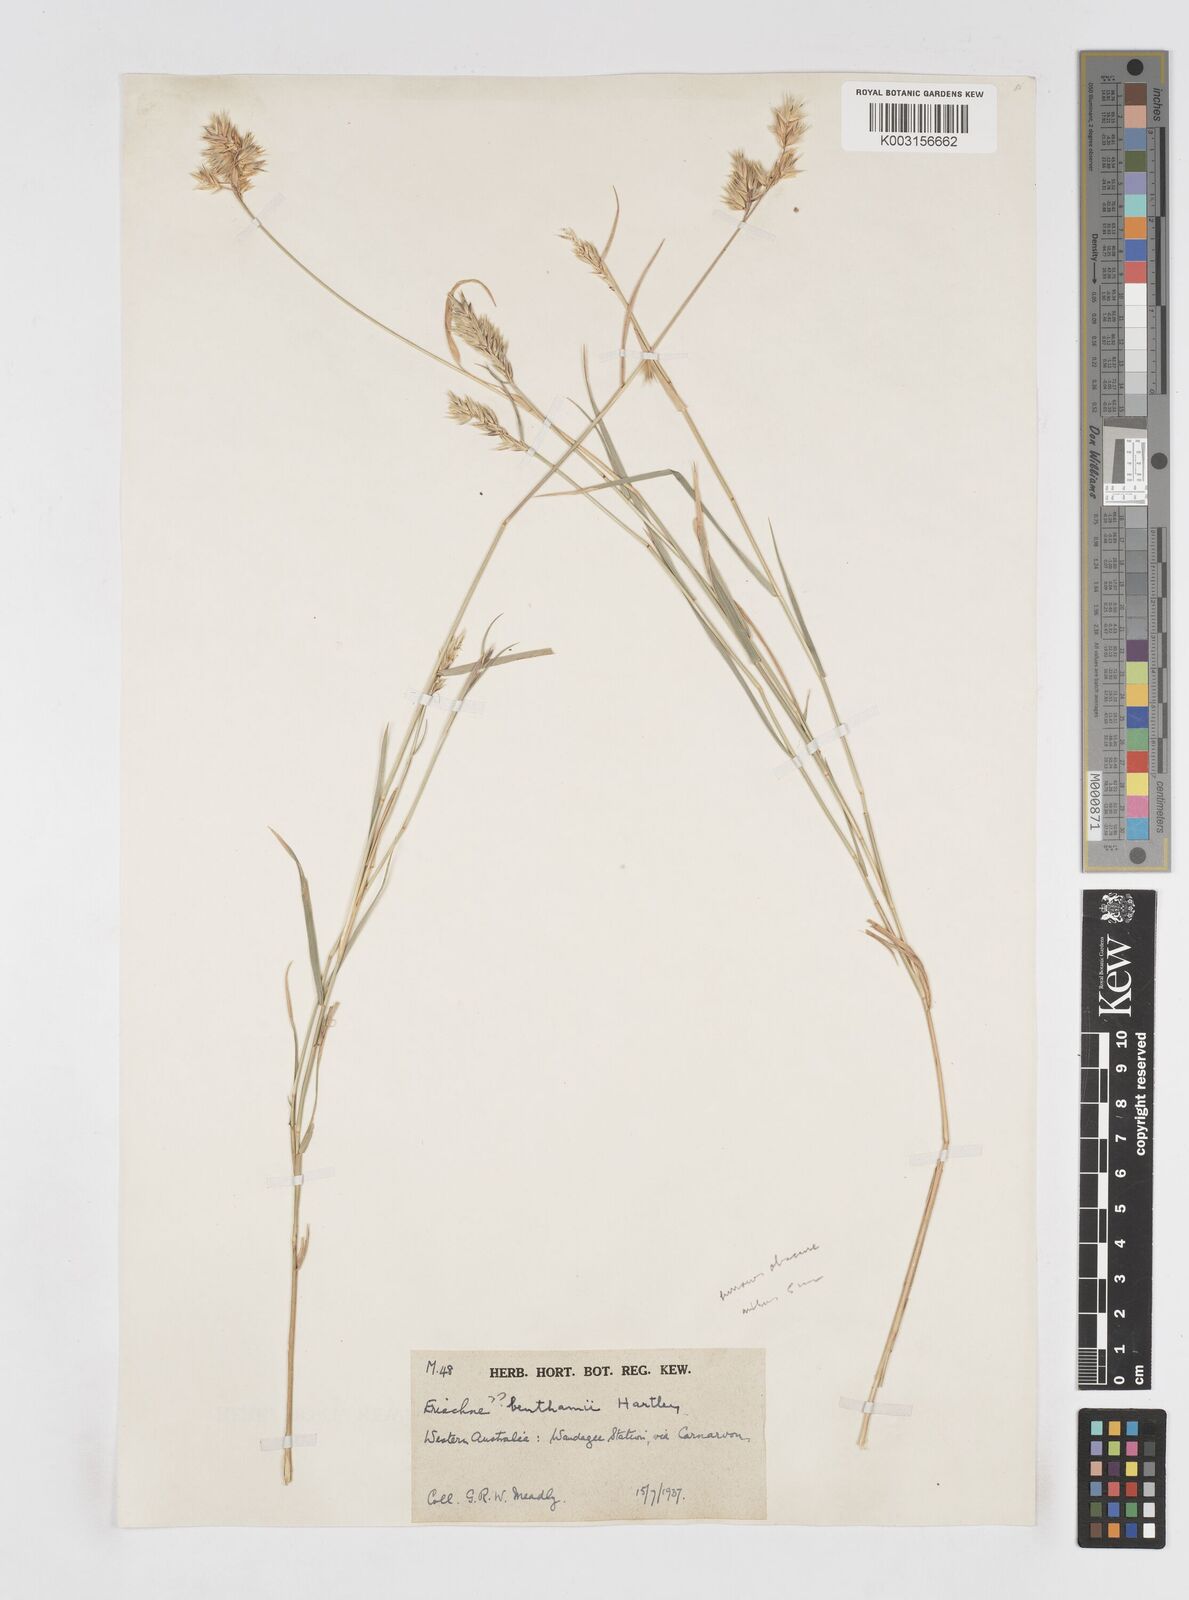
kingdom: Plantae
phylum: Tracheophyta
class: Liliopsida
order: Poales
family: Poaceae
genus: Eriachne
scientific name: Eriachne benthamii
